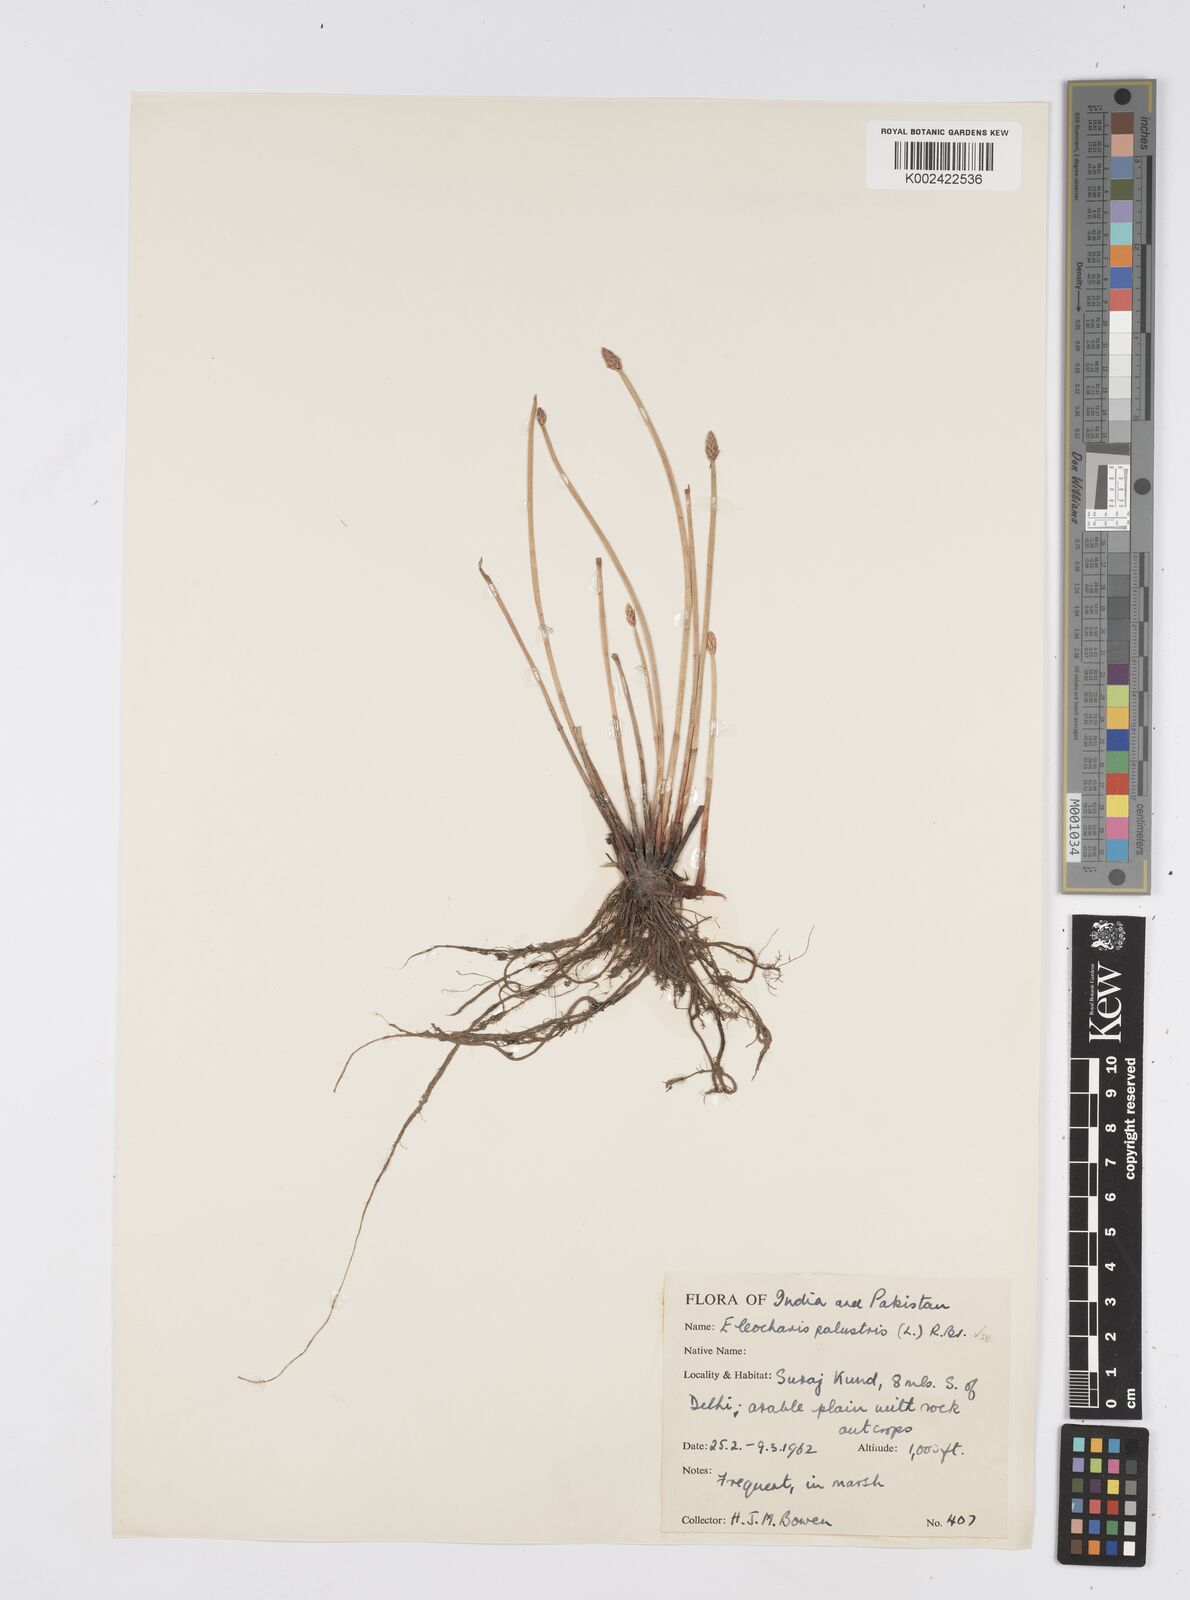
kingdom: Plantae
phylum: Tracheophyta
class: Liliopsida
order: Poales
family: Cyperaceae
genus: Eleocharis
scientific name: Eleocharis palustris
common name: Common spike-rush
